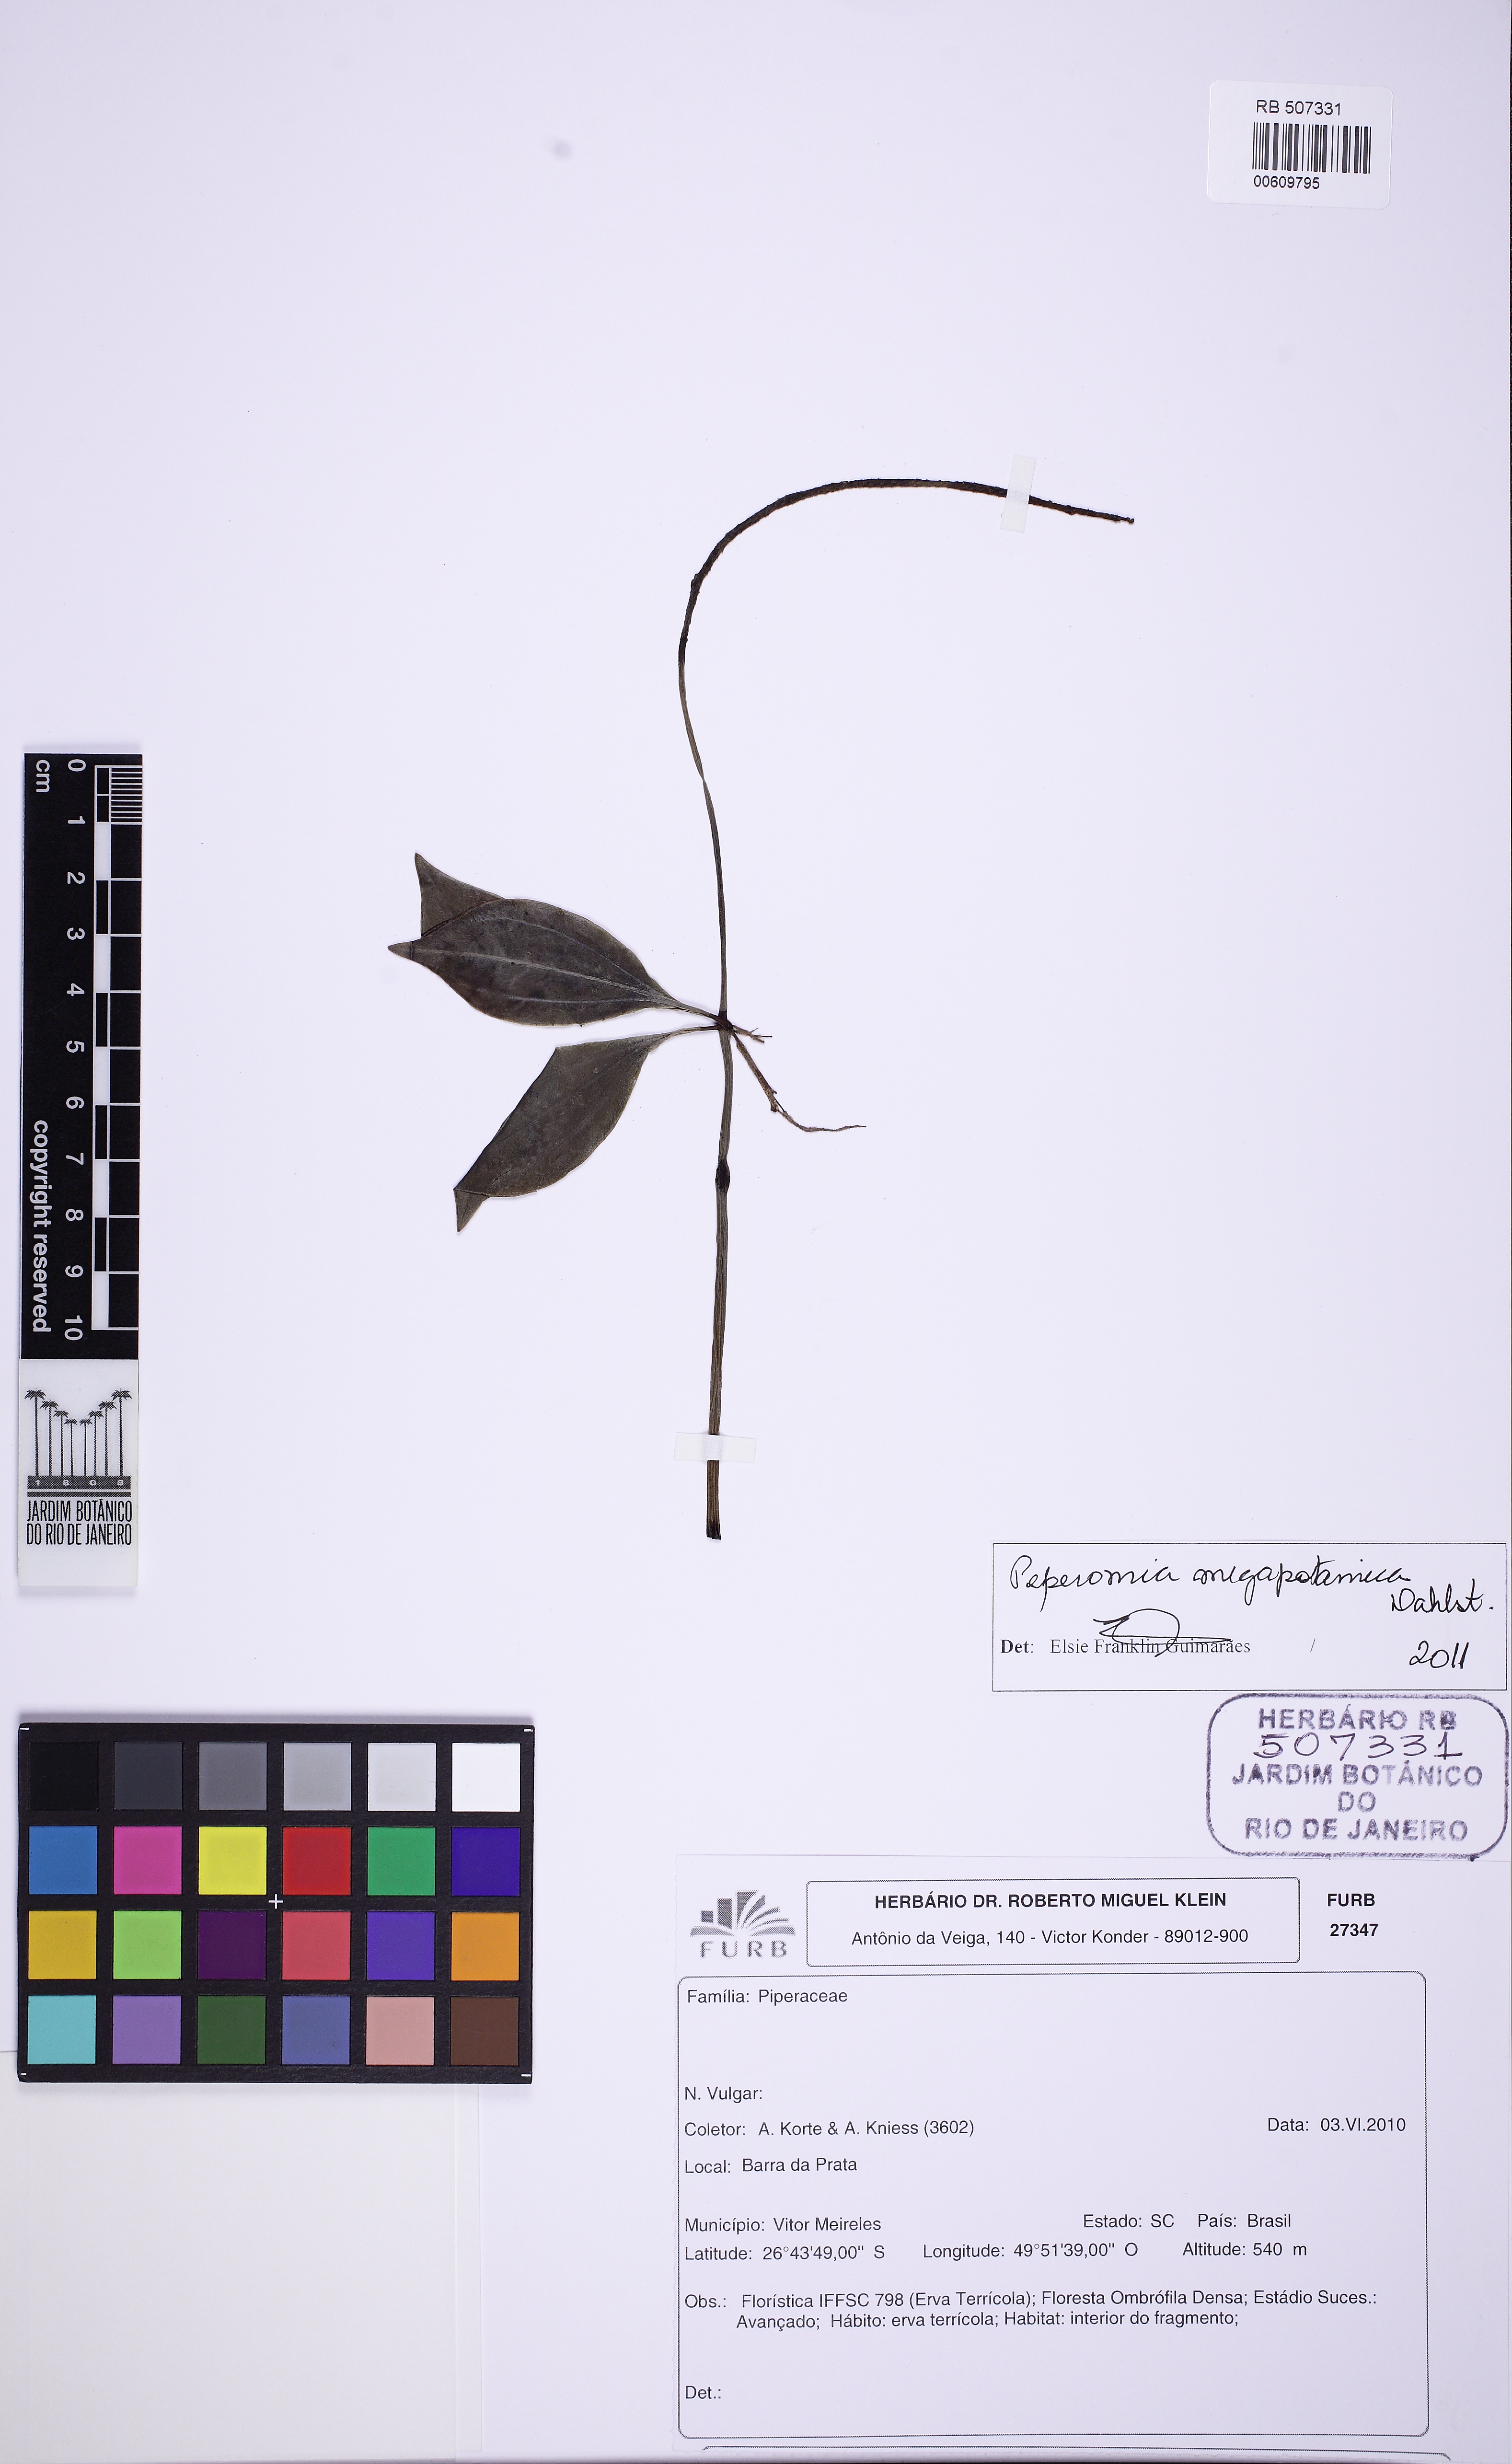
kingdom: Plantae
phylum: Tracheophyta
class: Magnoliopsida
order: Piperales
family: Piperaceae
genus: Peperomia
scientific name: Peperomia megapotamica
